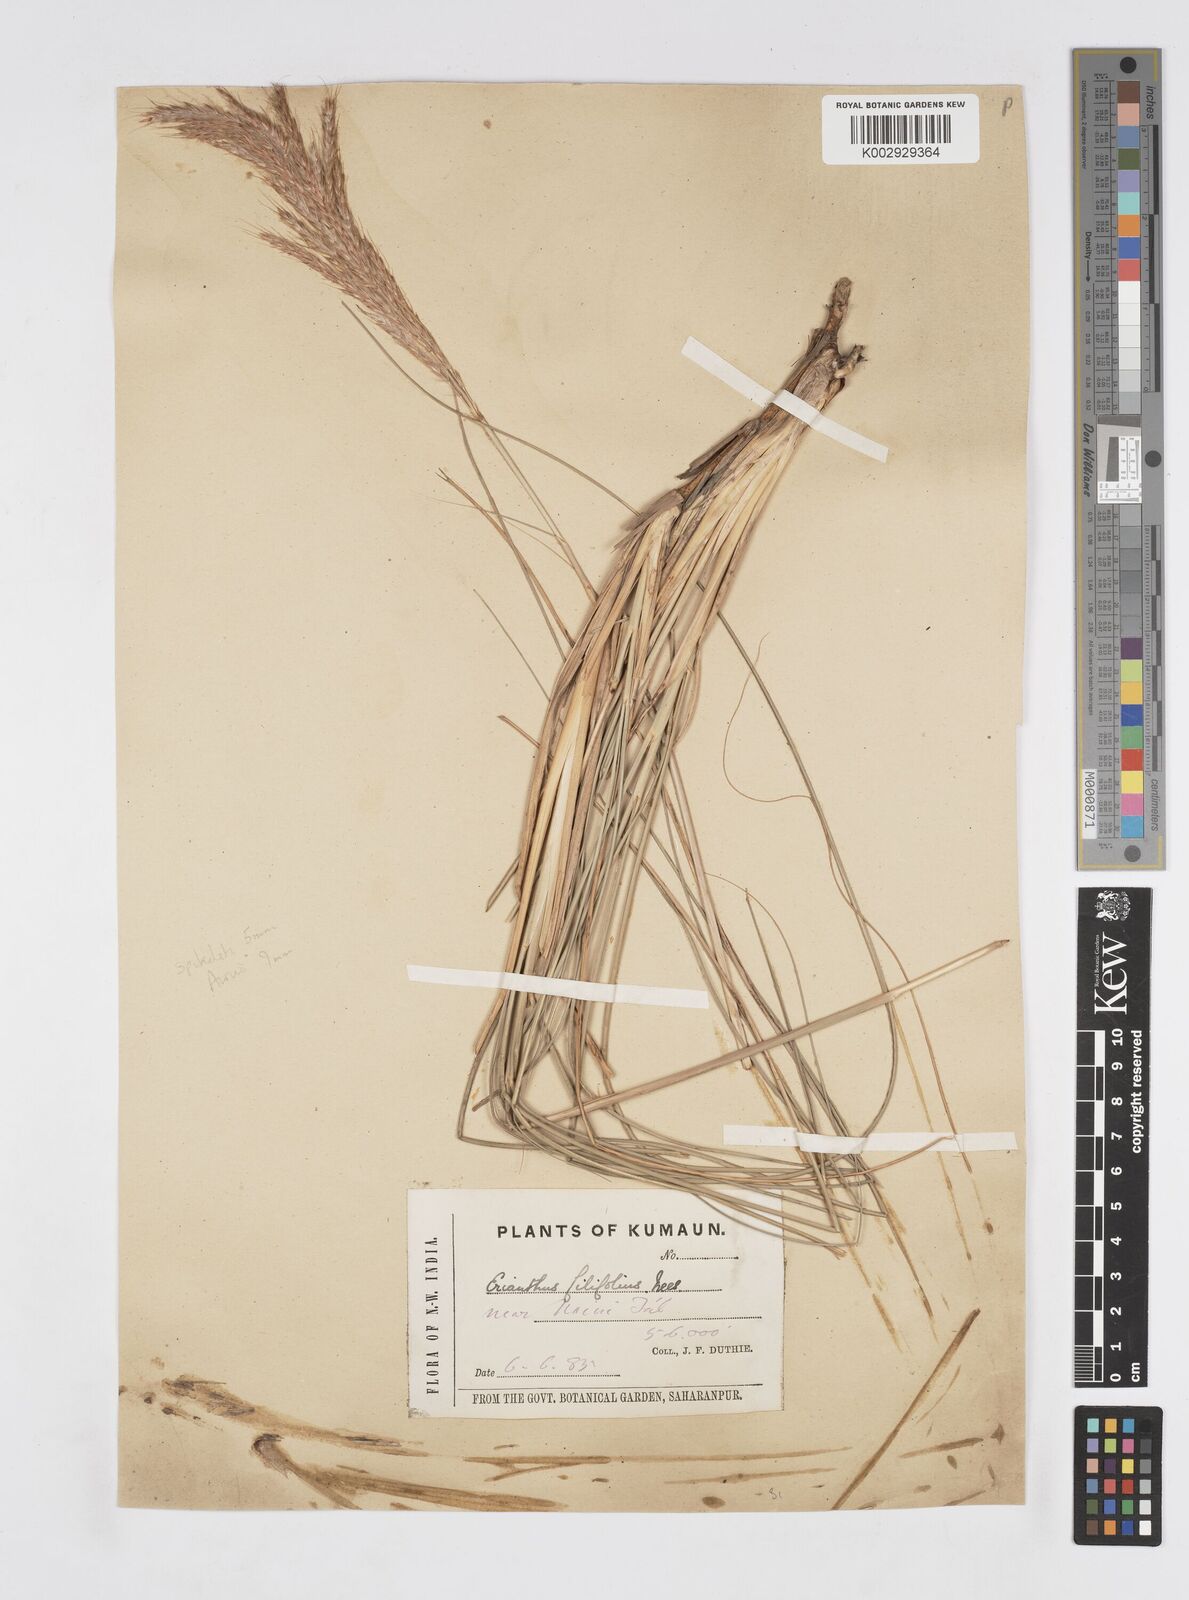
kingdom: Plantae
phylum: Tracheophyta
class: Liliopsida
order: Poales
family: Poaceae
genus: Saccharum
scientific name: Saccharum filifolium
